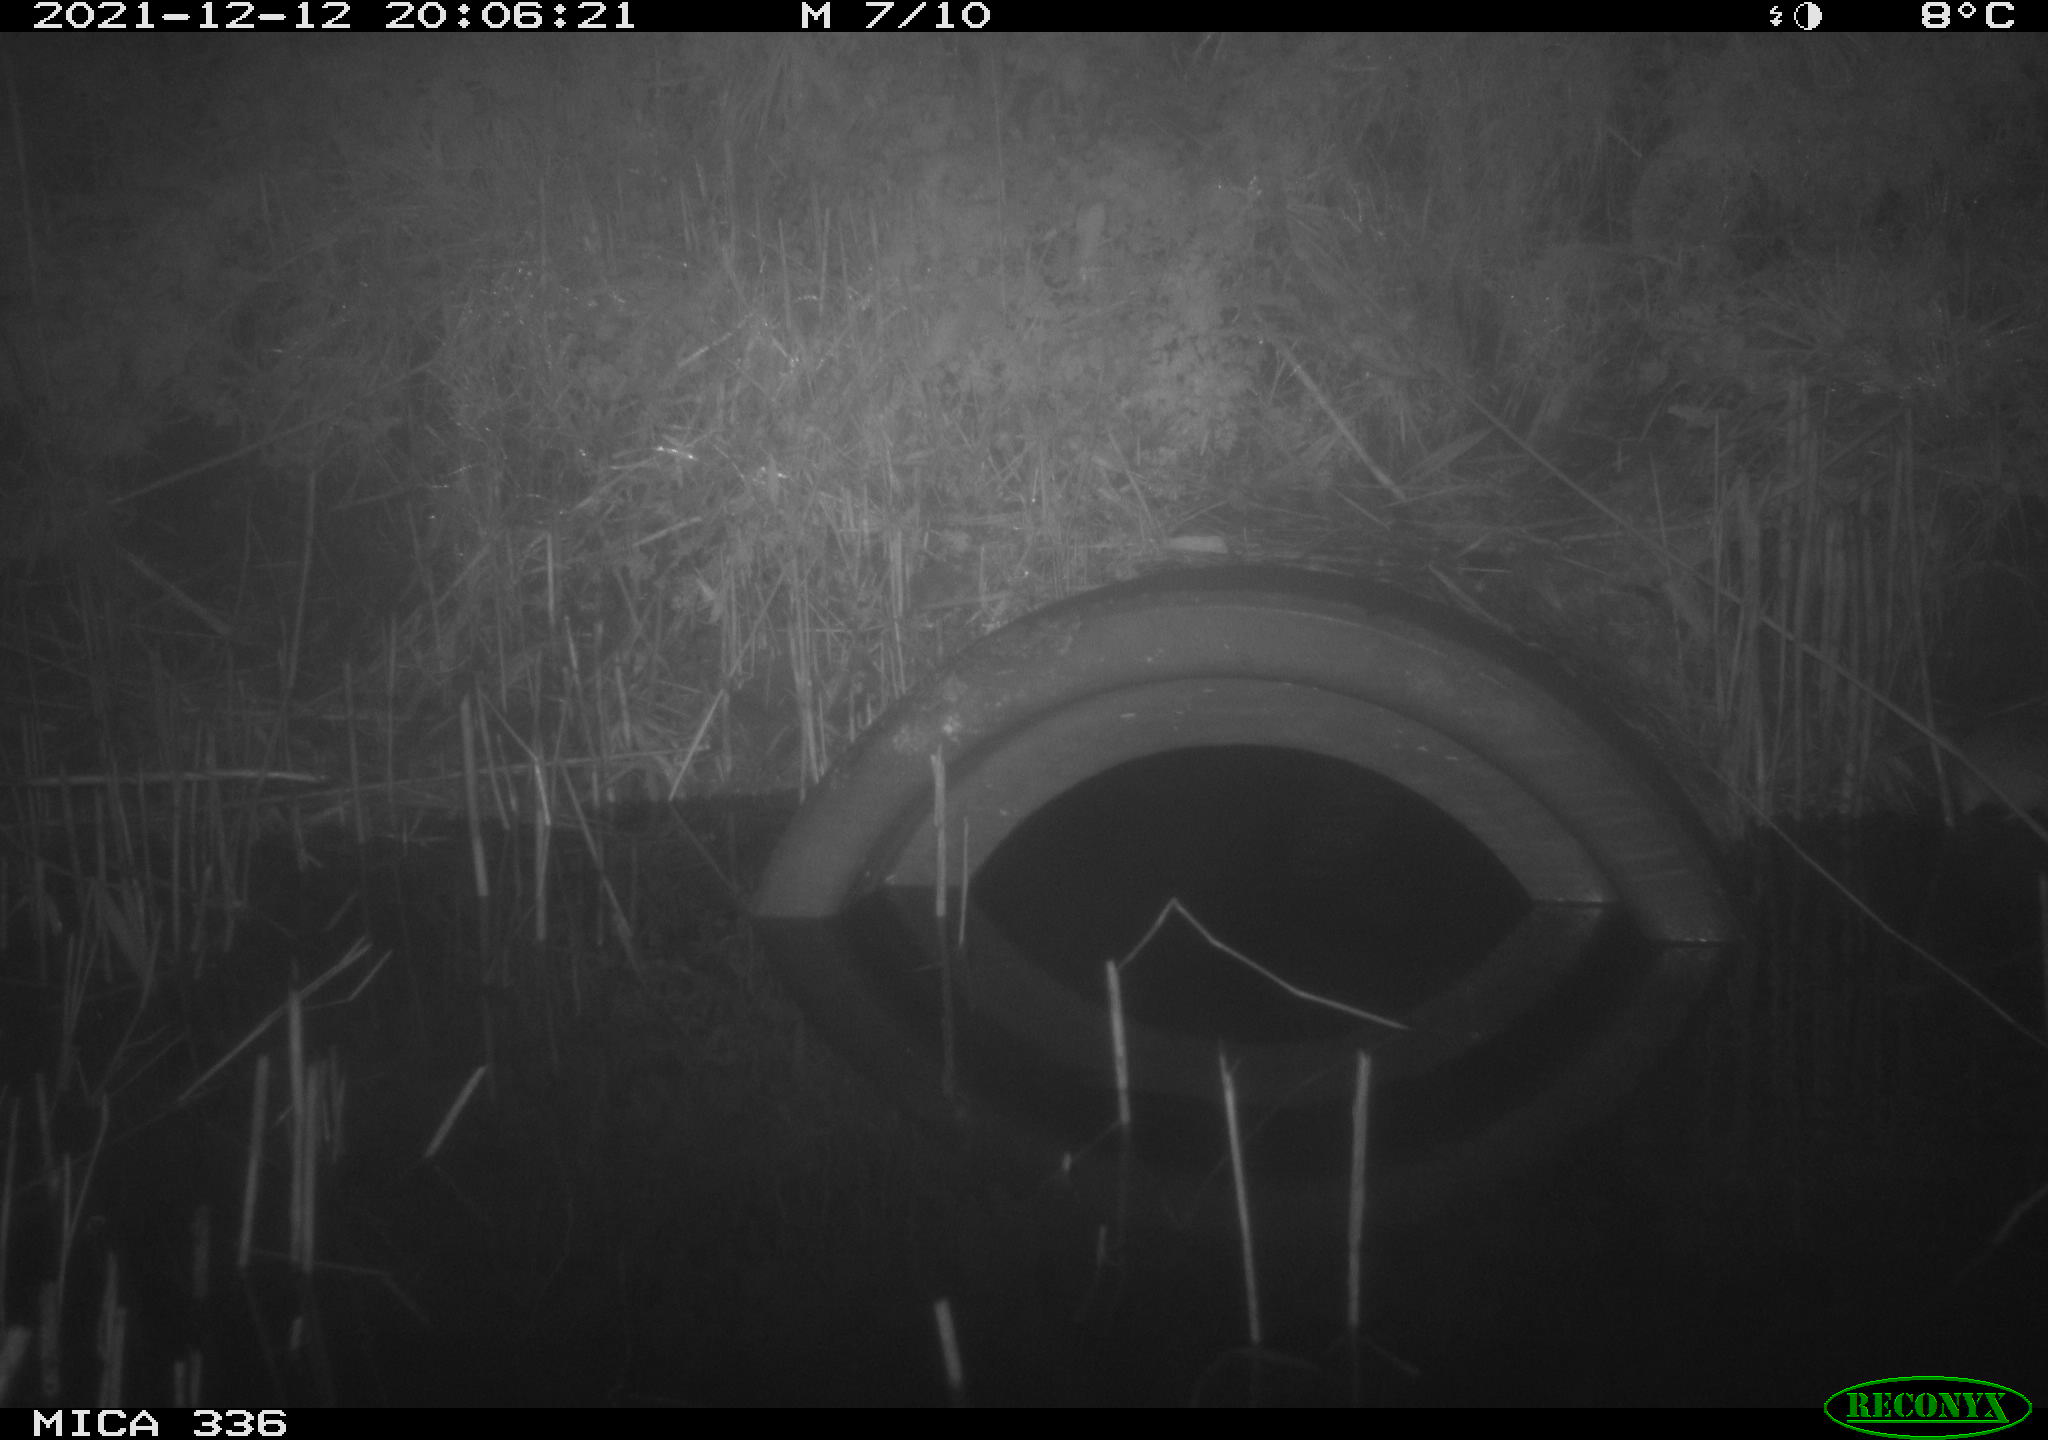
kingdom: Animalia
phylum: Chordata
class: Mammalia
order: Rodentia
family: Muridae
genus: Rattus
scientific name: Rattus norvegicus
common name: Brown rat
